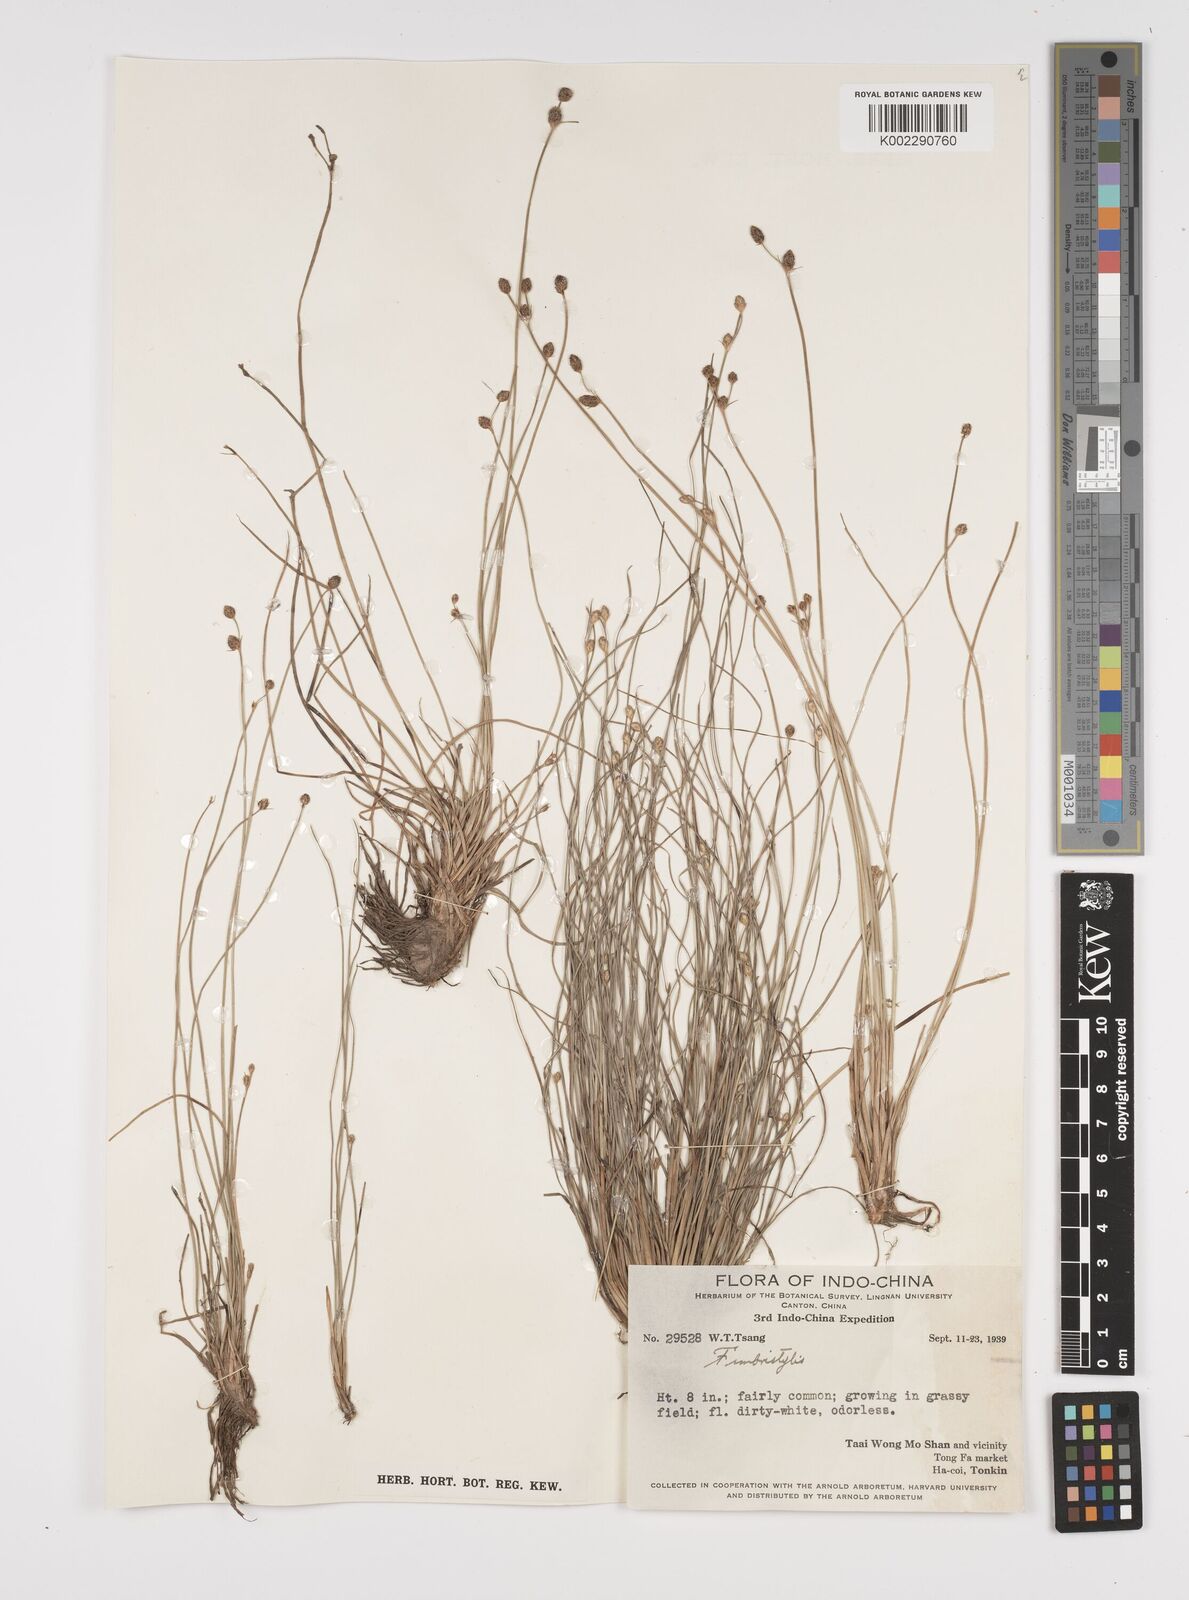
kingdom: Plantae
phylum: Tracheophyta
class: Liliopsida
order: Poales
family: Cyperaceae
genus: Fimbristylis
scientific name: Fimbristylis
